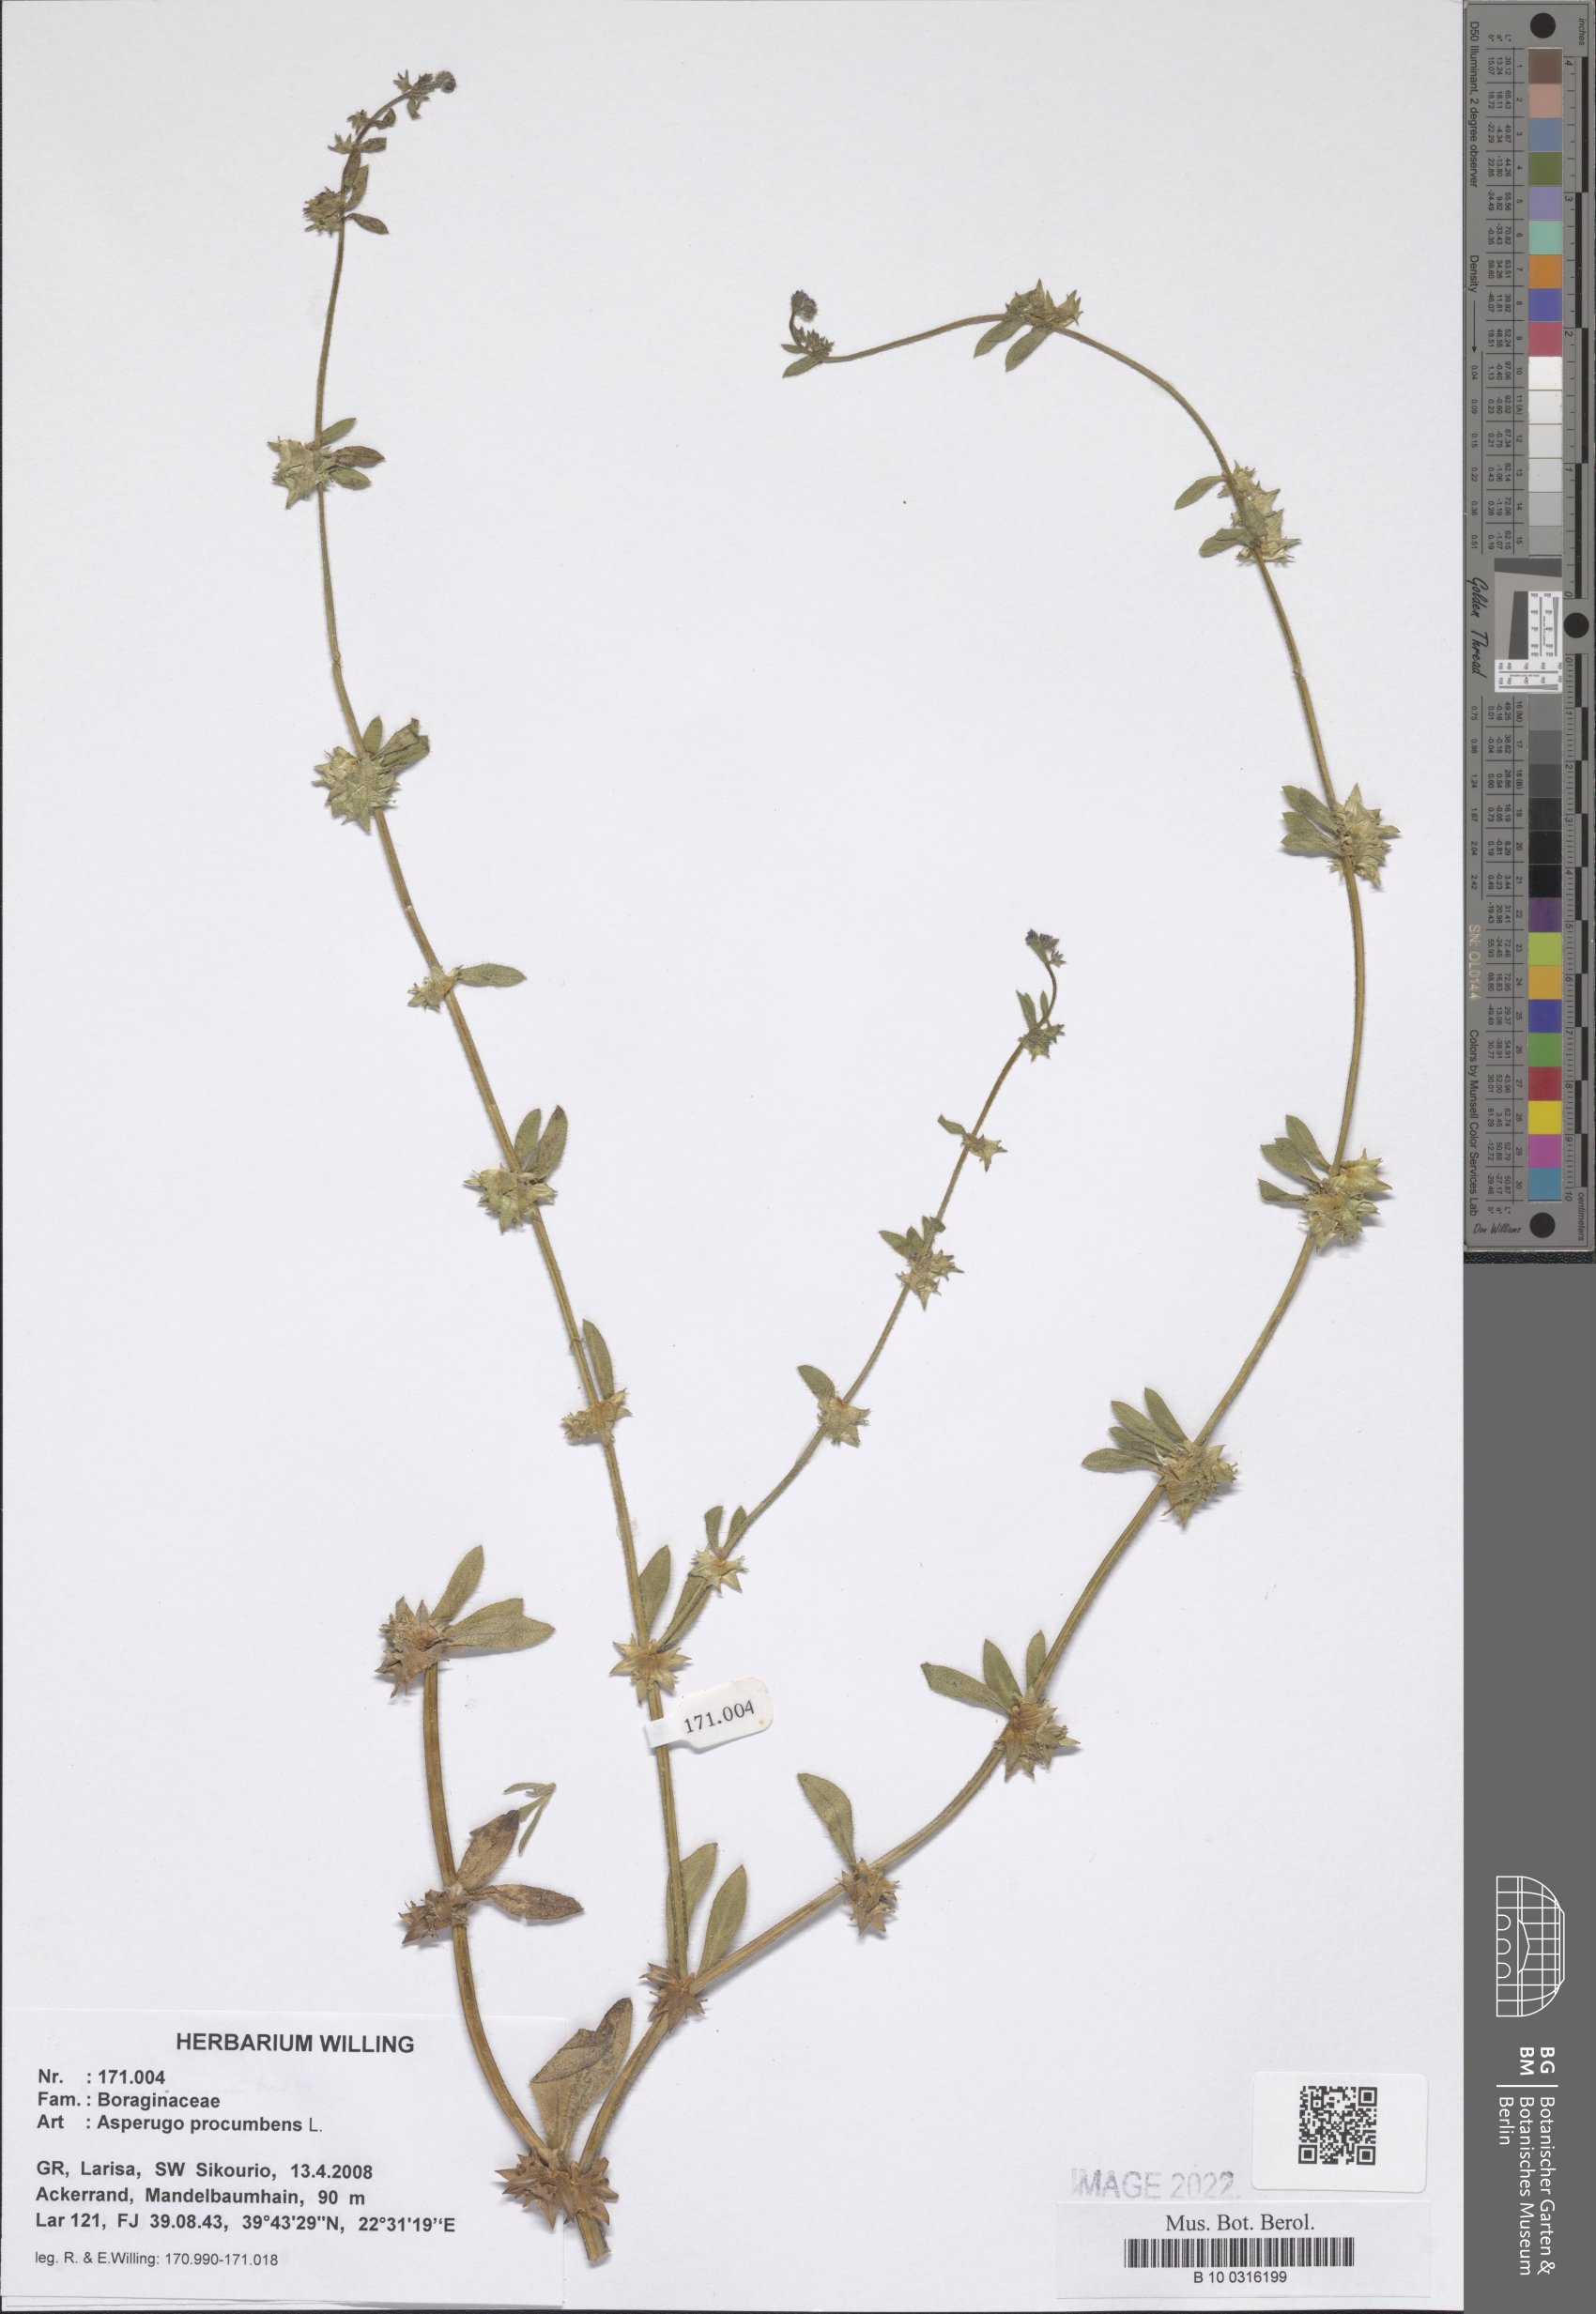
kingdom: Plantae
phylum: Tracheophyta
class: Magnoliopsida
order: Boraginales
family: Boraginaceae
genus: Asperugo
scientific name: Asperugo procumbens
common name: Madwort
